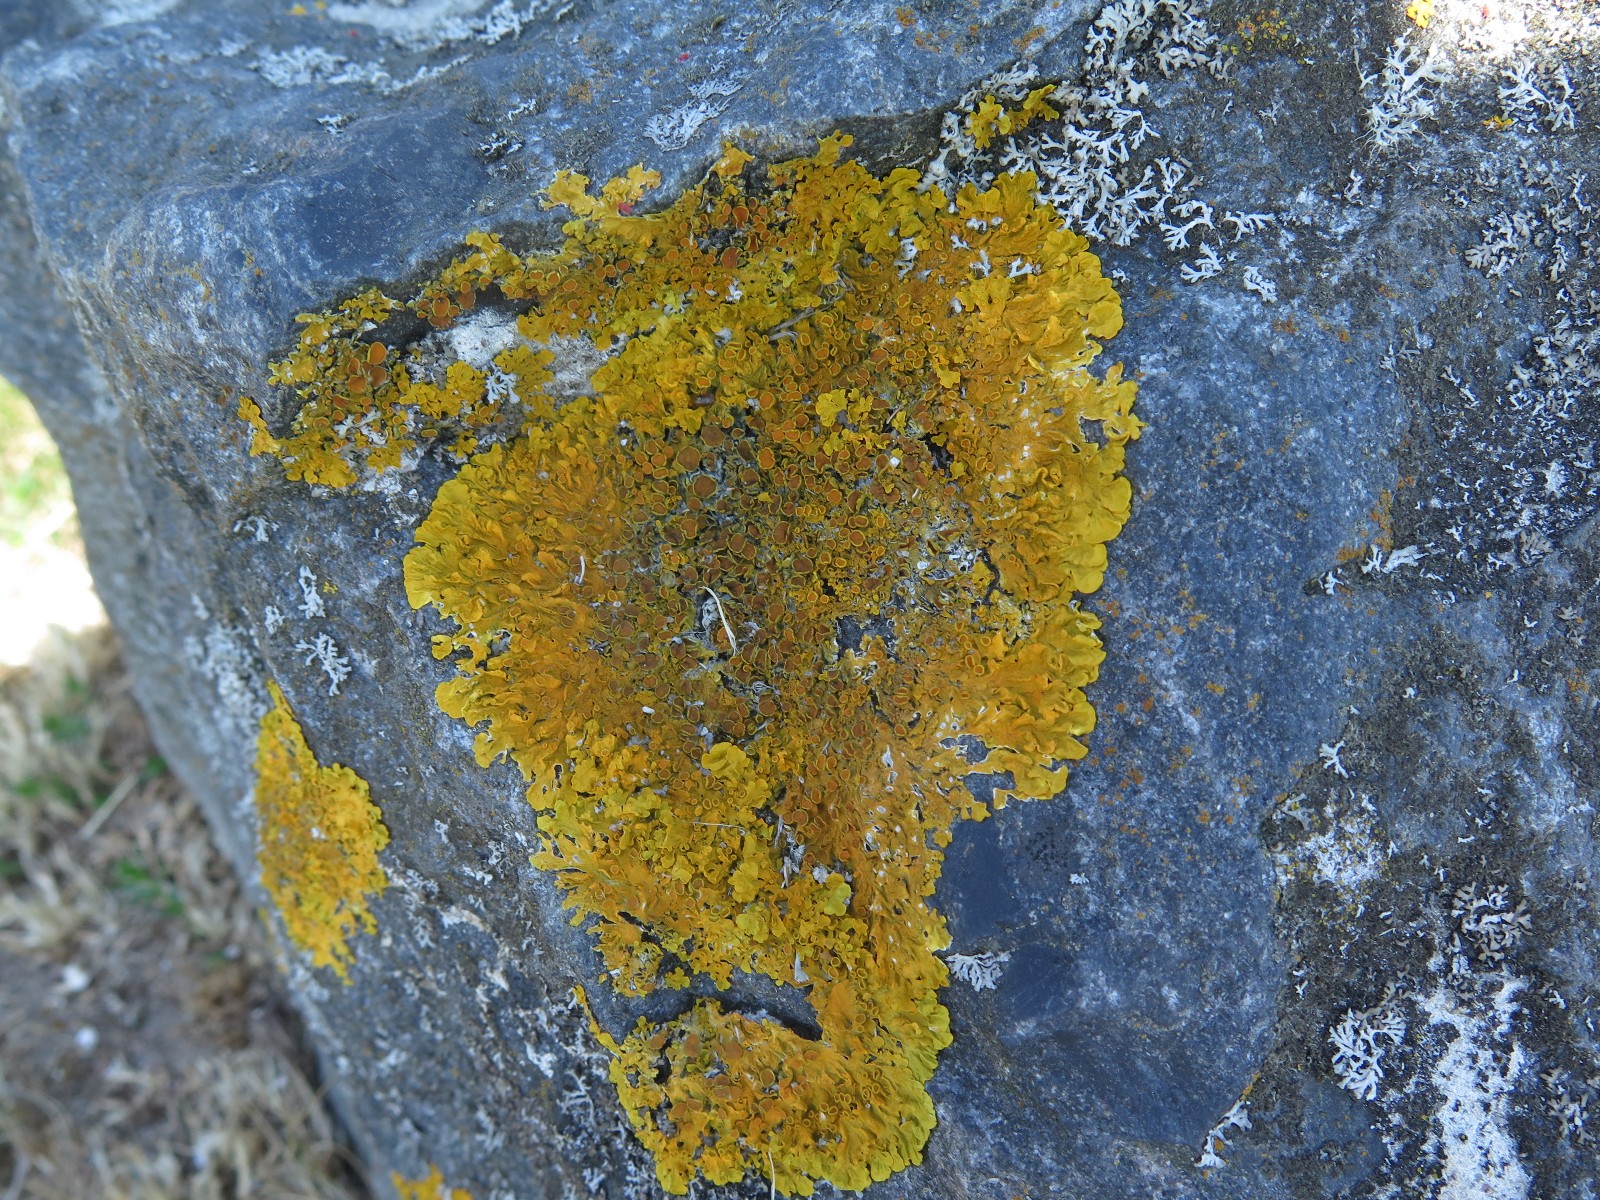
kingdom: Fungi
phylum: Ascomycota
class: Lecanoromycetes
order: Teloschistales
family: Teloschistaceae
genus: Xanthoria
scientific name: Xanthoria parietina
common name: almindelig væggelav
